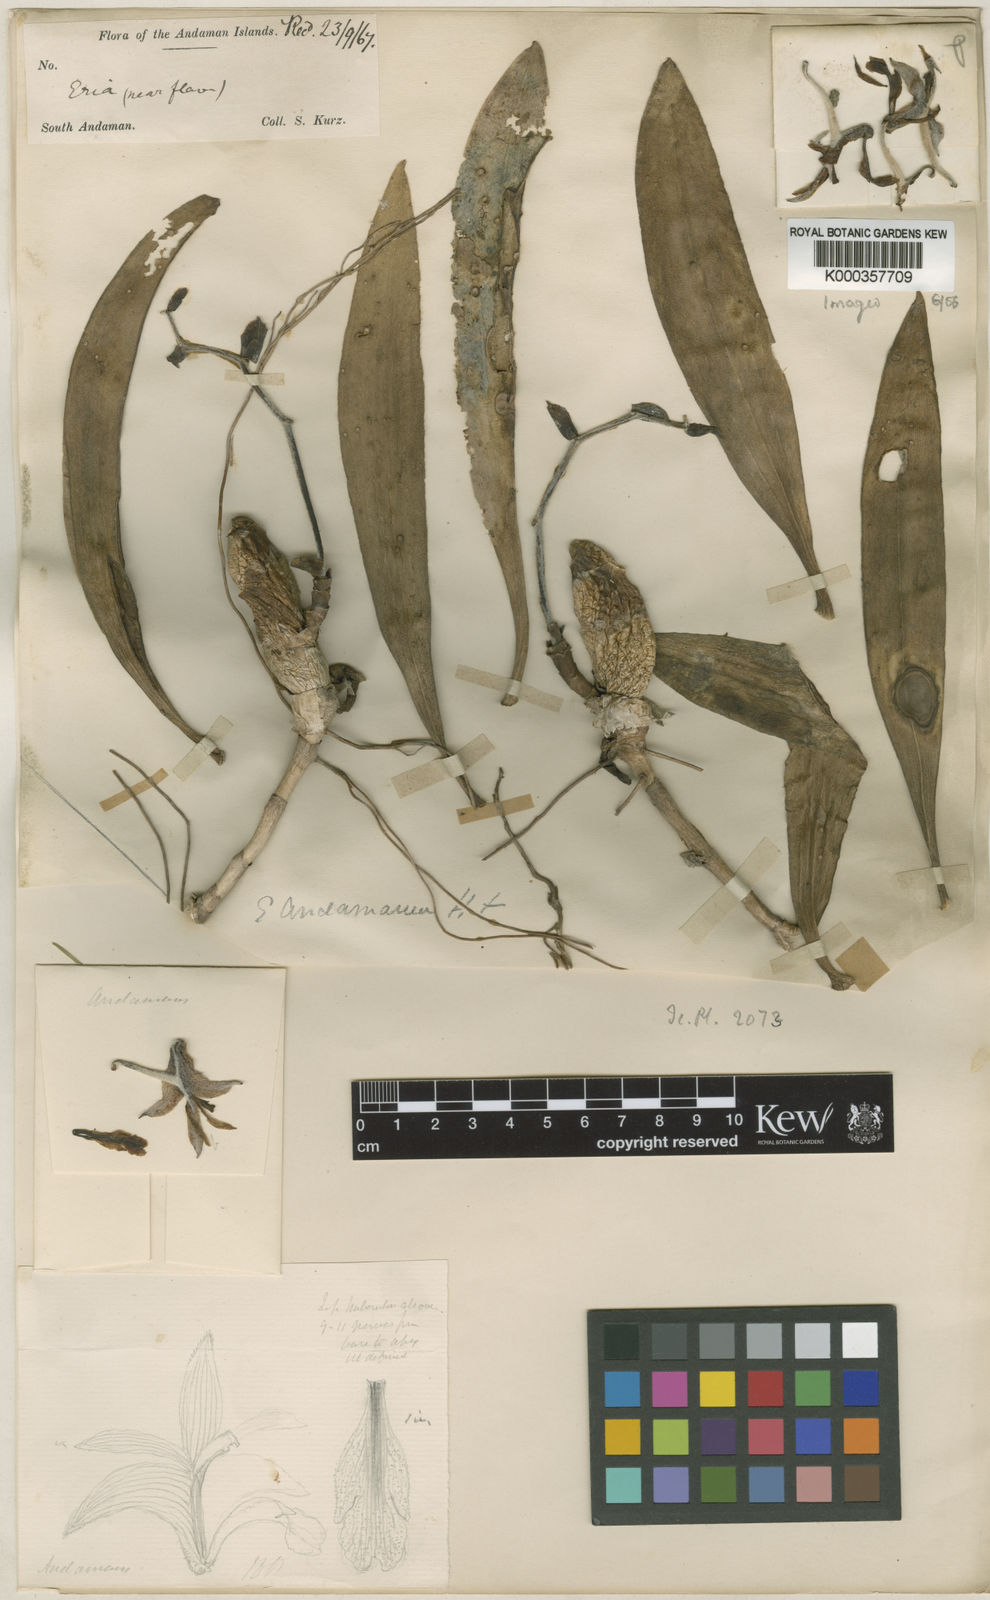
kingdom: Plantae
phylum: Tracheophyta
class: Liliopsida
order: Asparagales
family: Orchidaceae
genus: Dendrolirium
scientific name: Dendrolirium andamanicum
